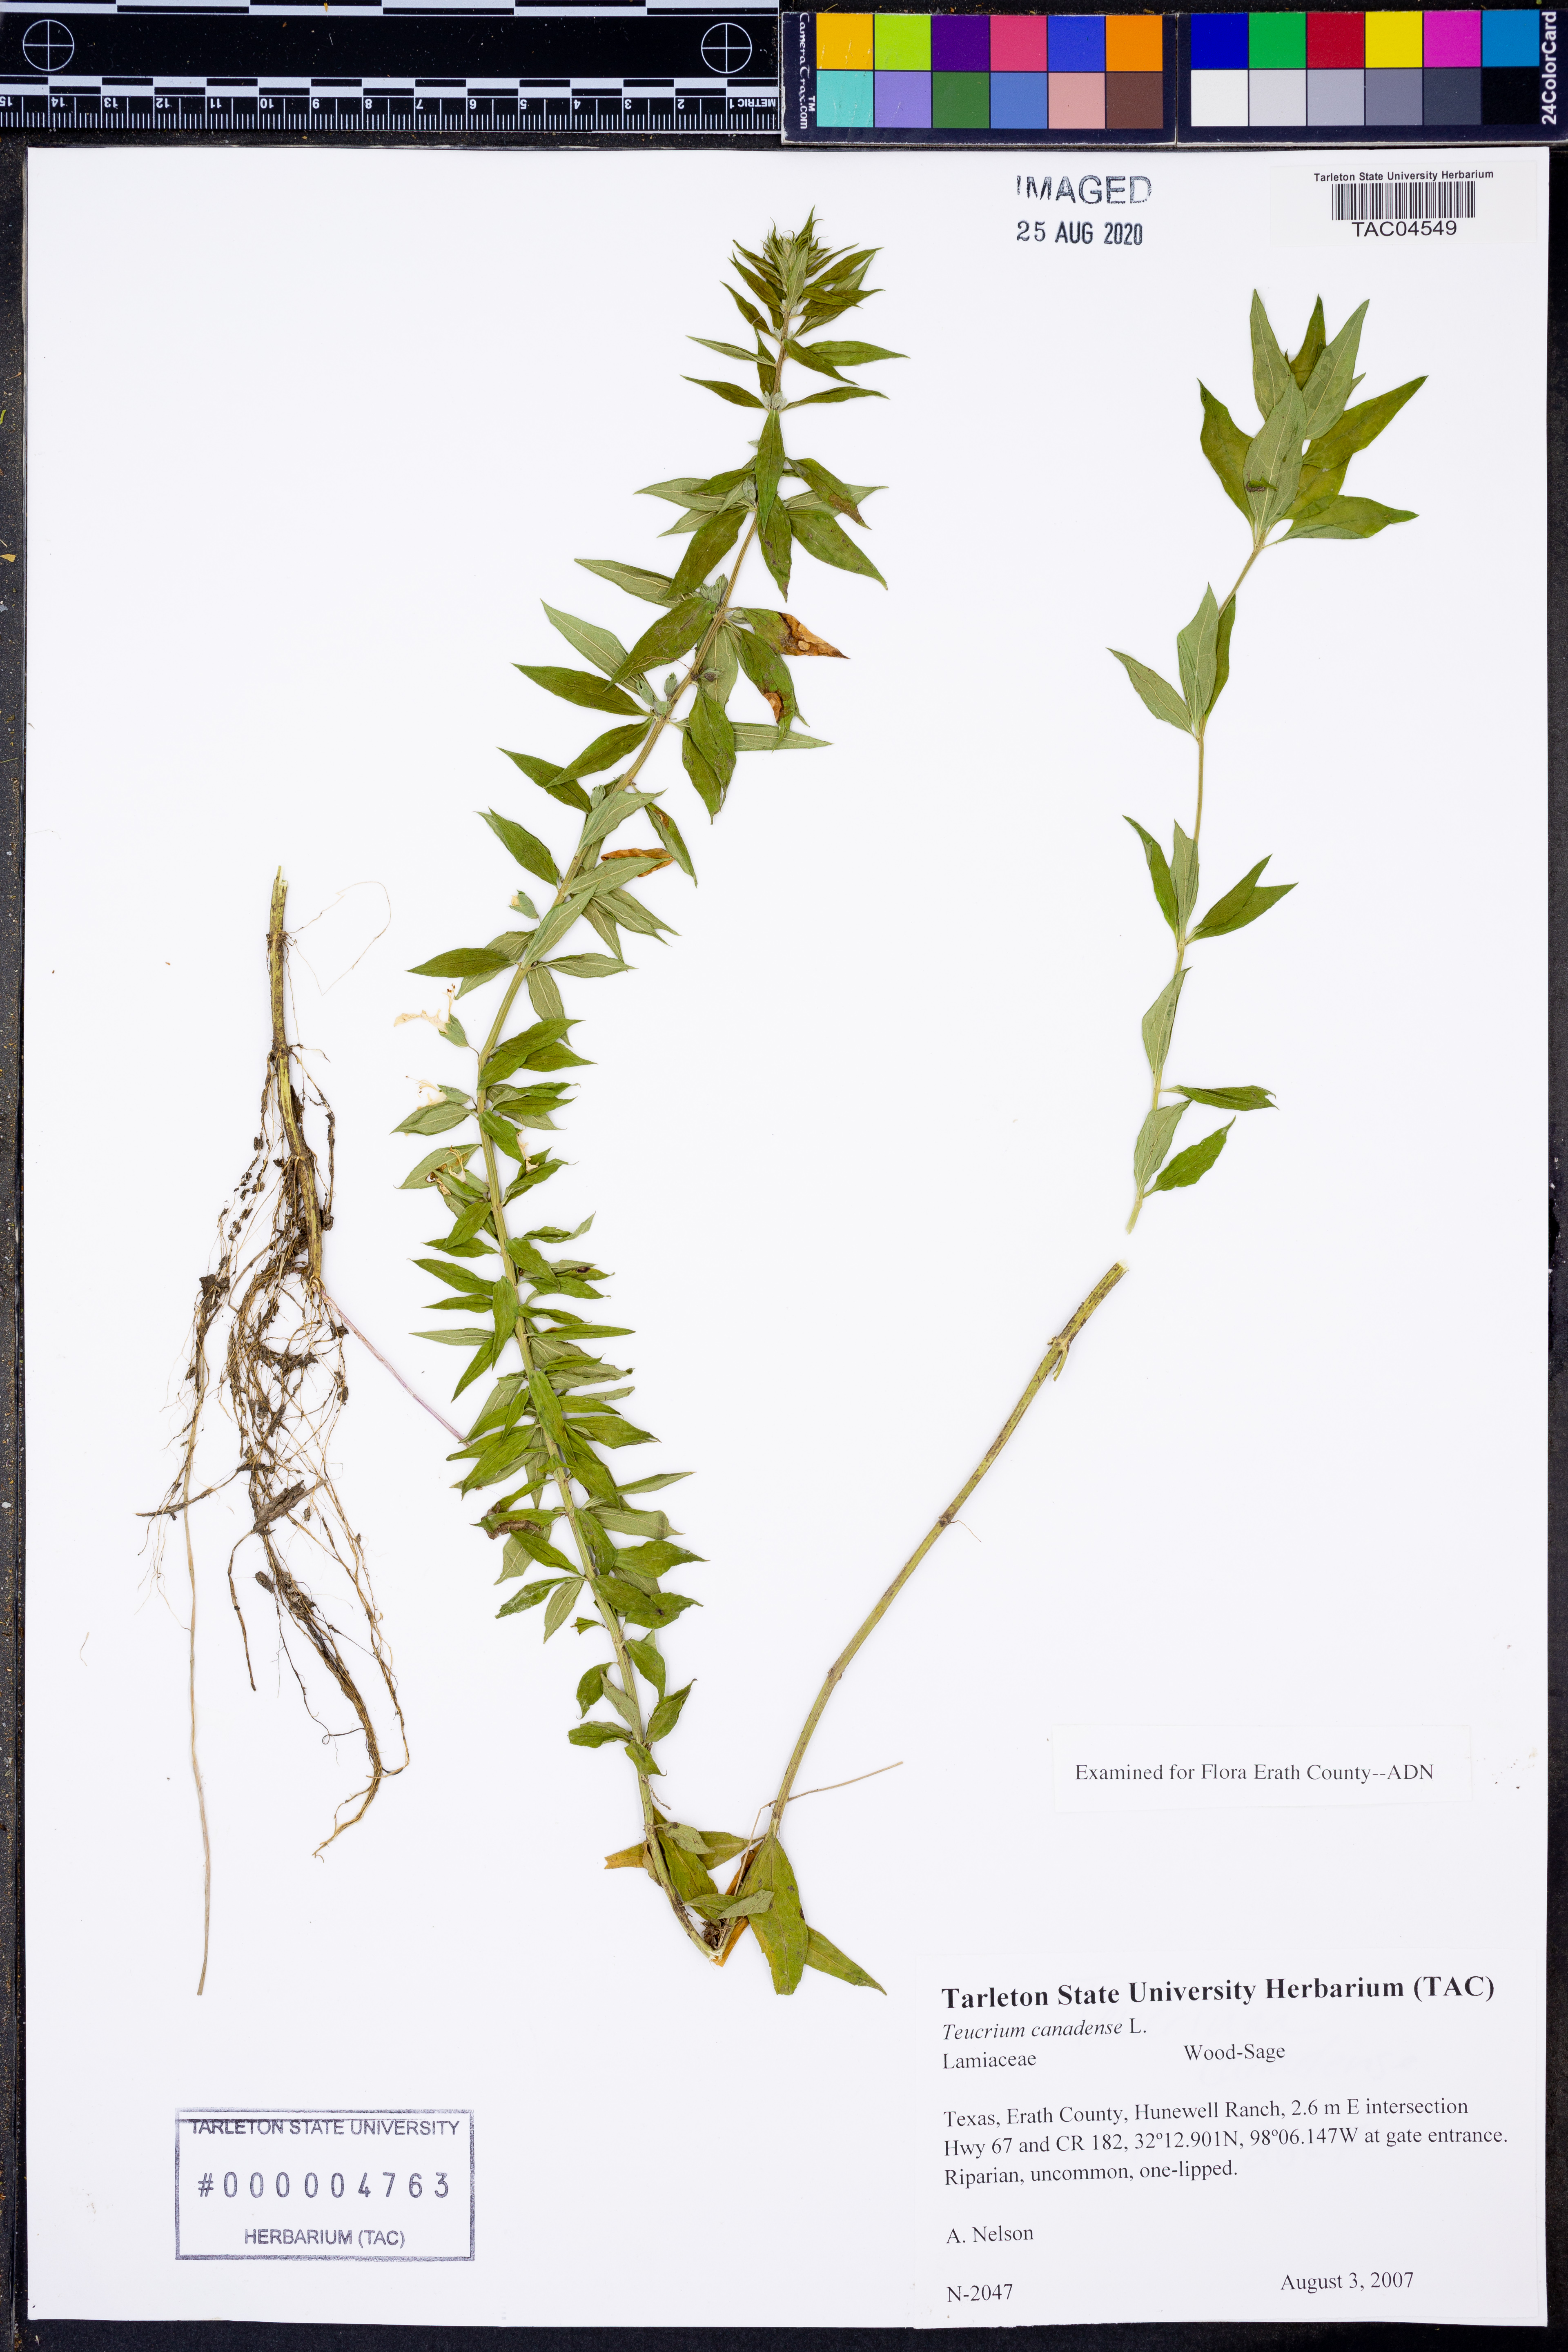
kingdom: Plantae
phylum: Tracheophyta
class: Magnoliopsida
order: Lamiales
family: Lamiaceae
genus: Teucrium
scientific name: Teucrium canadense
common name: American germander
